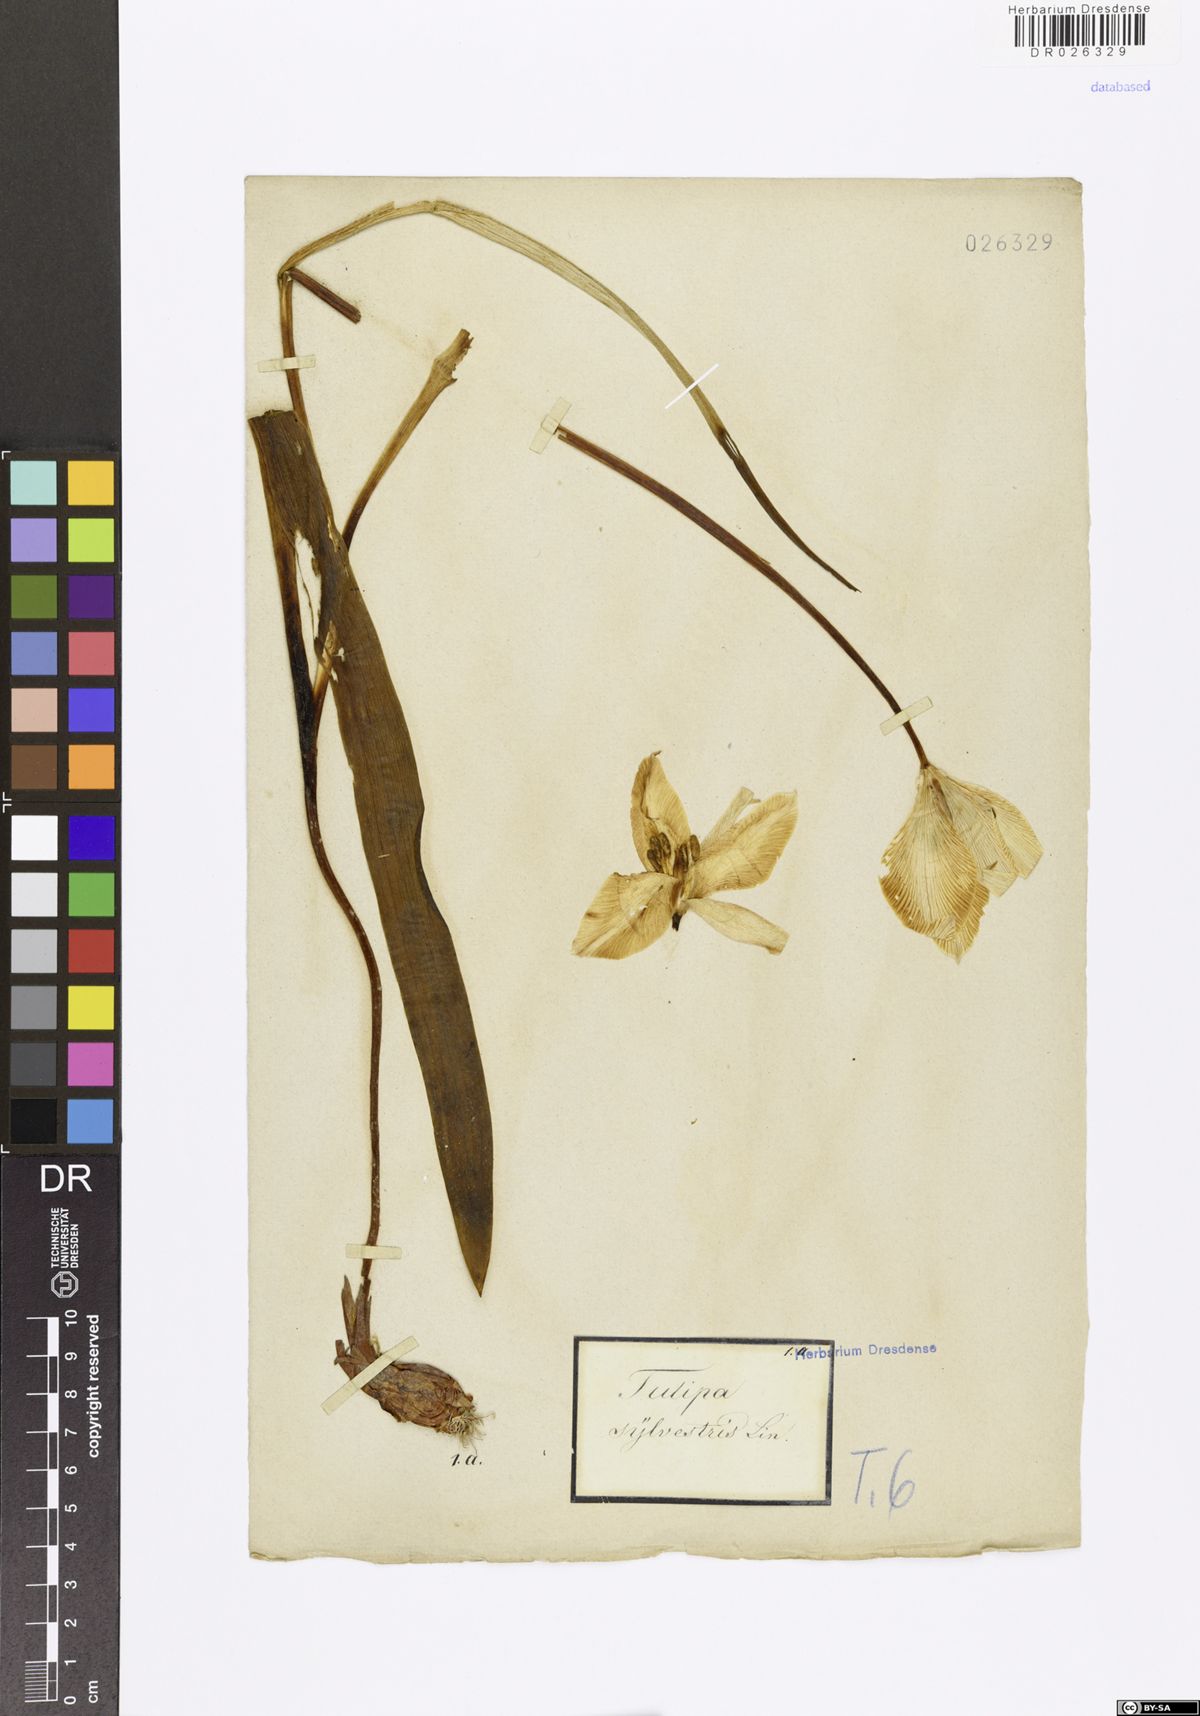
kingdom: Plantae
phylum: Tracheophyta
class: Liliopsida
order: Liliales
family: Liliaceae
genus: Tulipa
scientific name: Tulipa sylvestris
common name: Wild tulip
